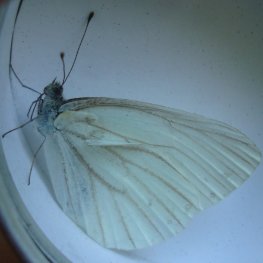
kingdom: Animalia
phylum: Arthropoda
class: Insecta
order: Lepidoptera
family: Pieridae
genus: Pieris
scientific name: Pieris oleracea
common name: Mustard White
